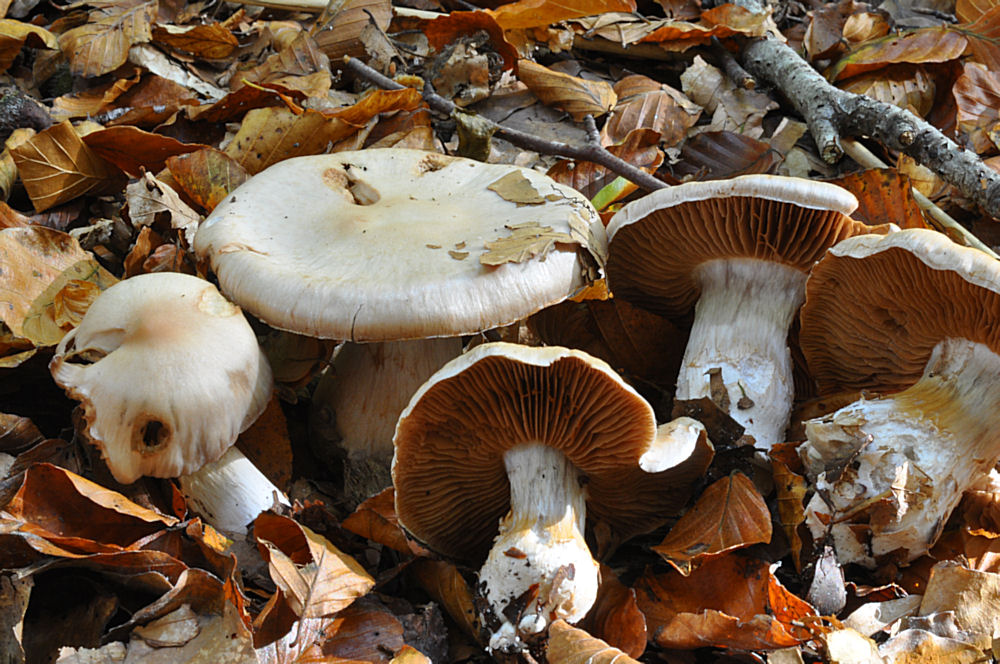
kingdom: Fungi
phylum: Basidiomycota
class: Agaricomycetes
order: Agaricales
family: Cortinariaceae
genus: Cortinarius
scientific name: Cortinarius urbicus
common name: sølv-slørhat
